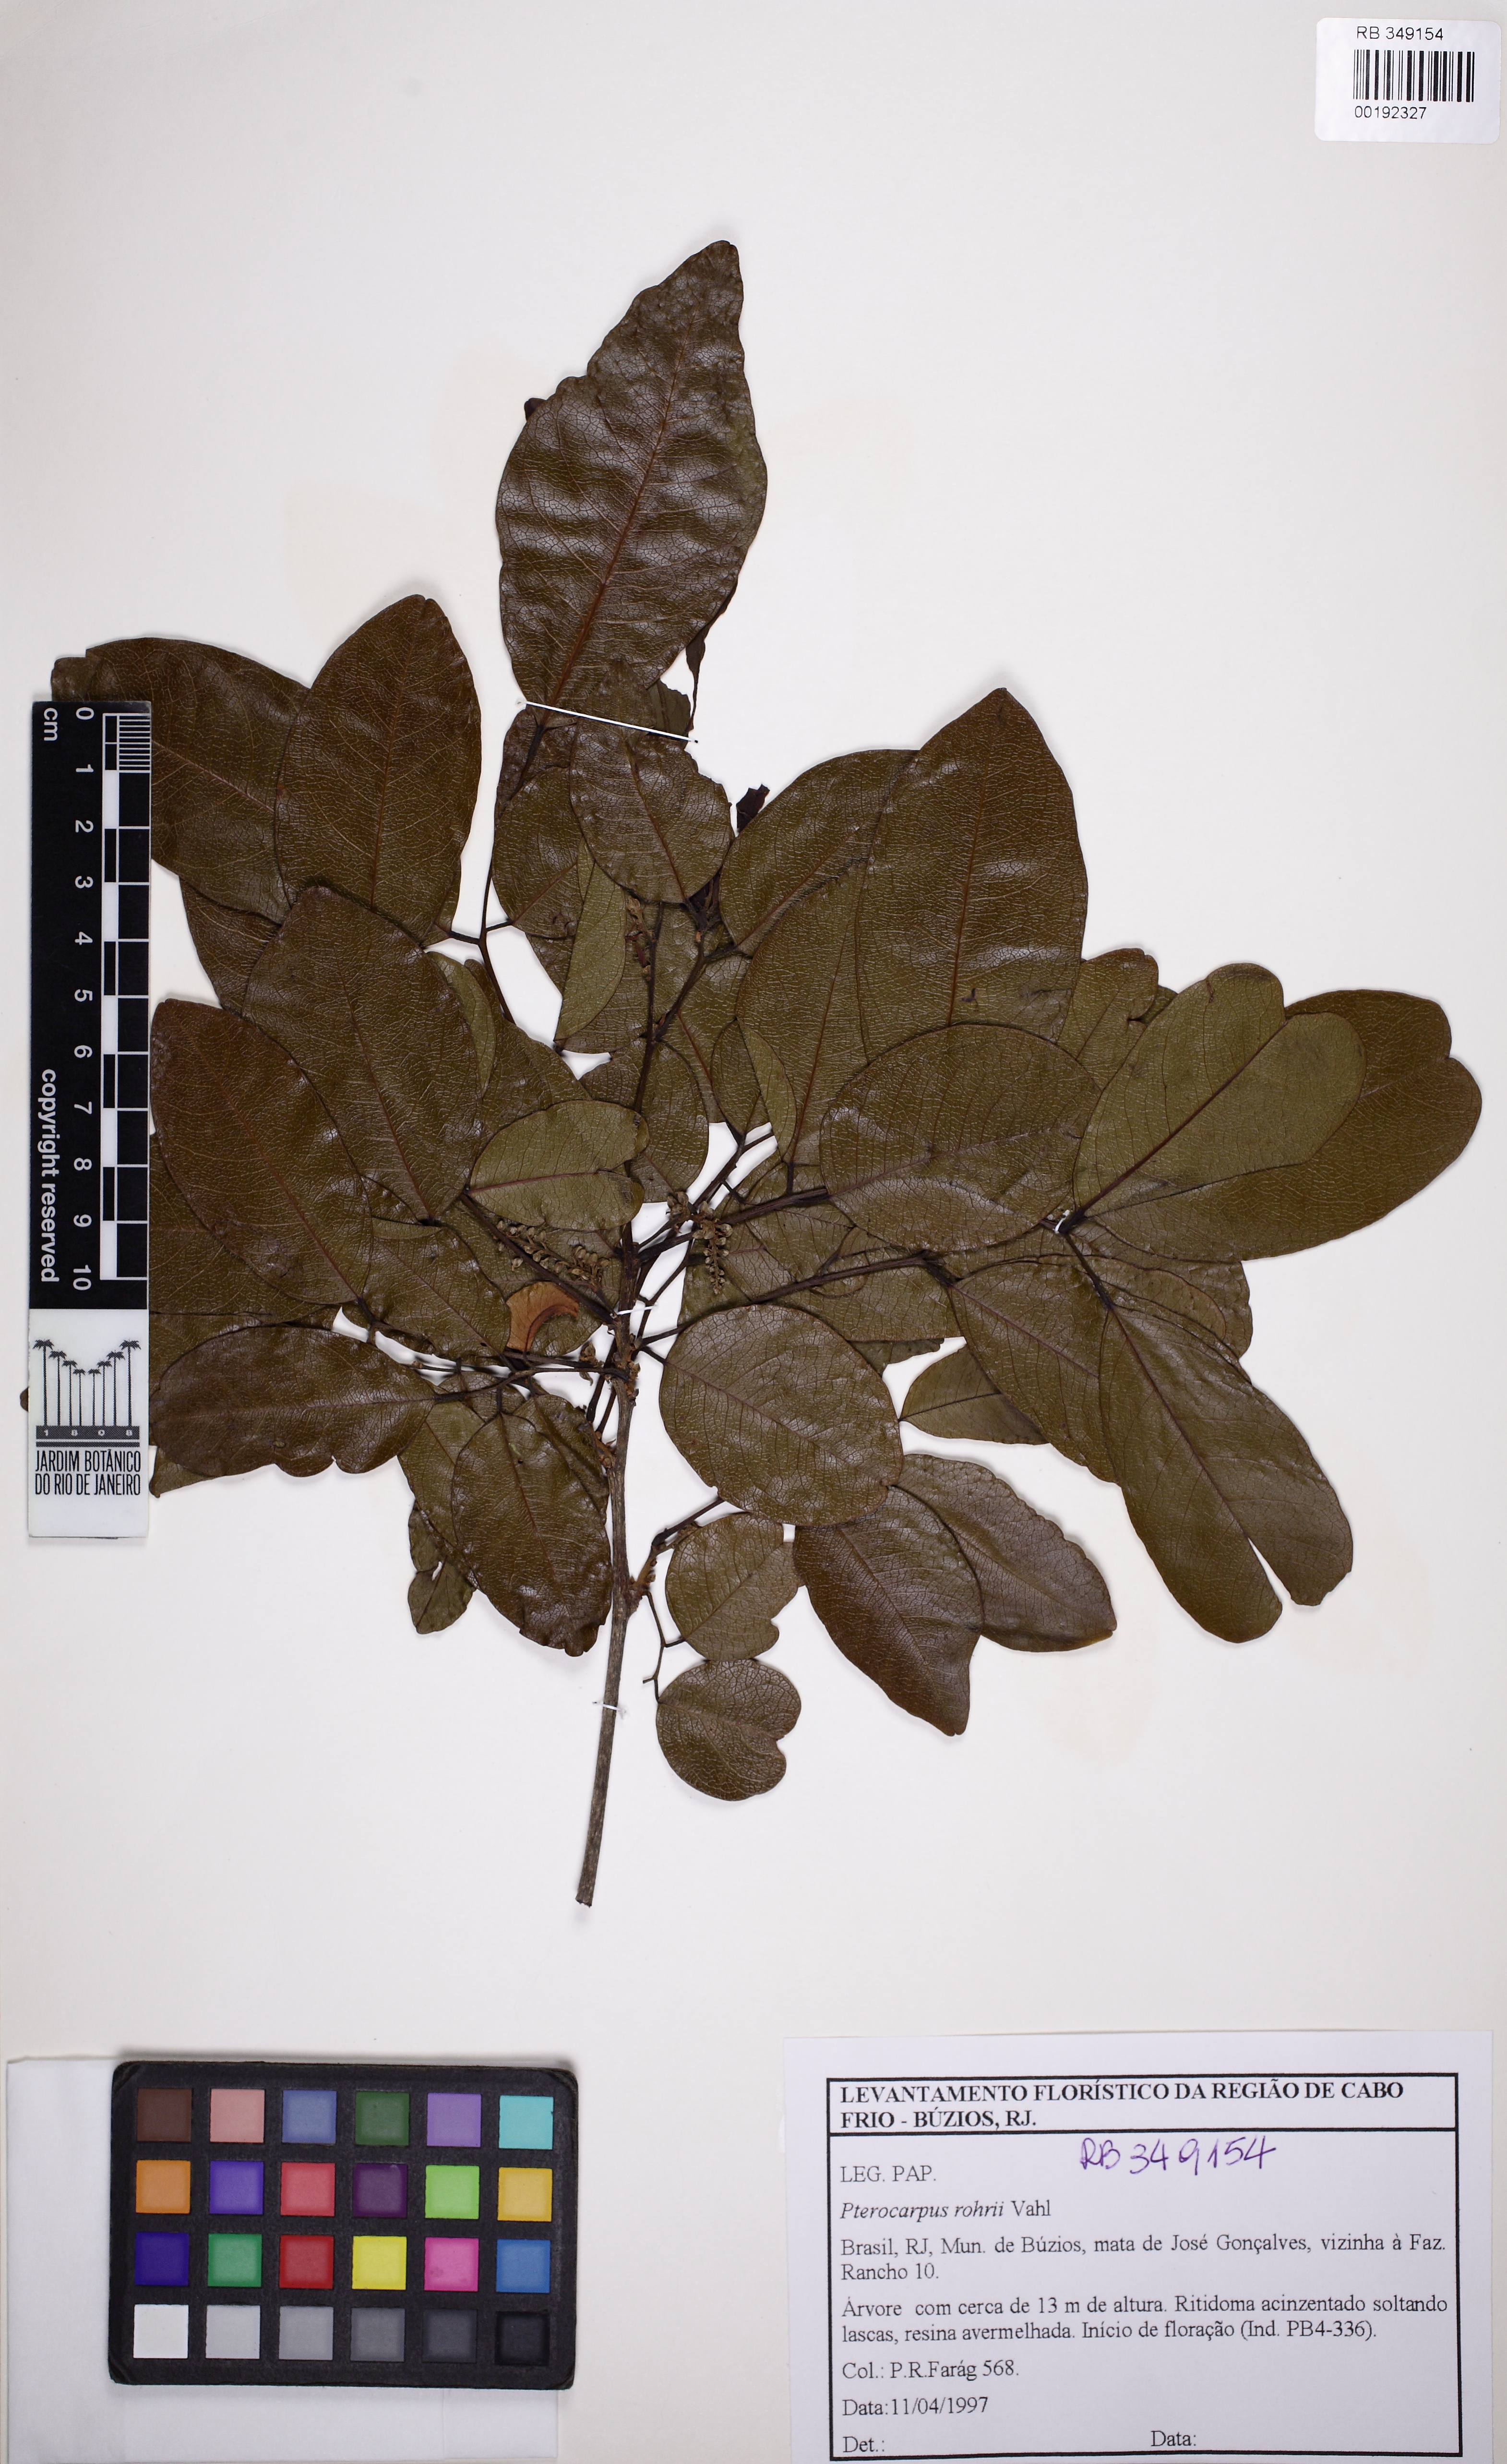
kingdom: Plantae
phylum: Tracheophyta
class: Magnoliopsida
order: Fabales
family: Fabaceae
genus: Pterocarpus
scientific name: Pterocarpus rohrii
